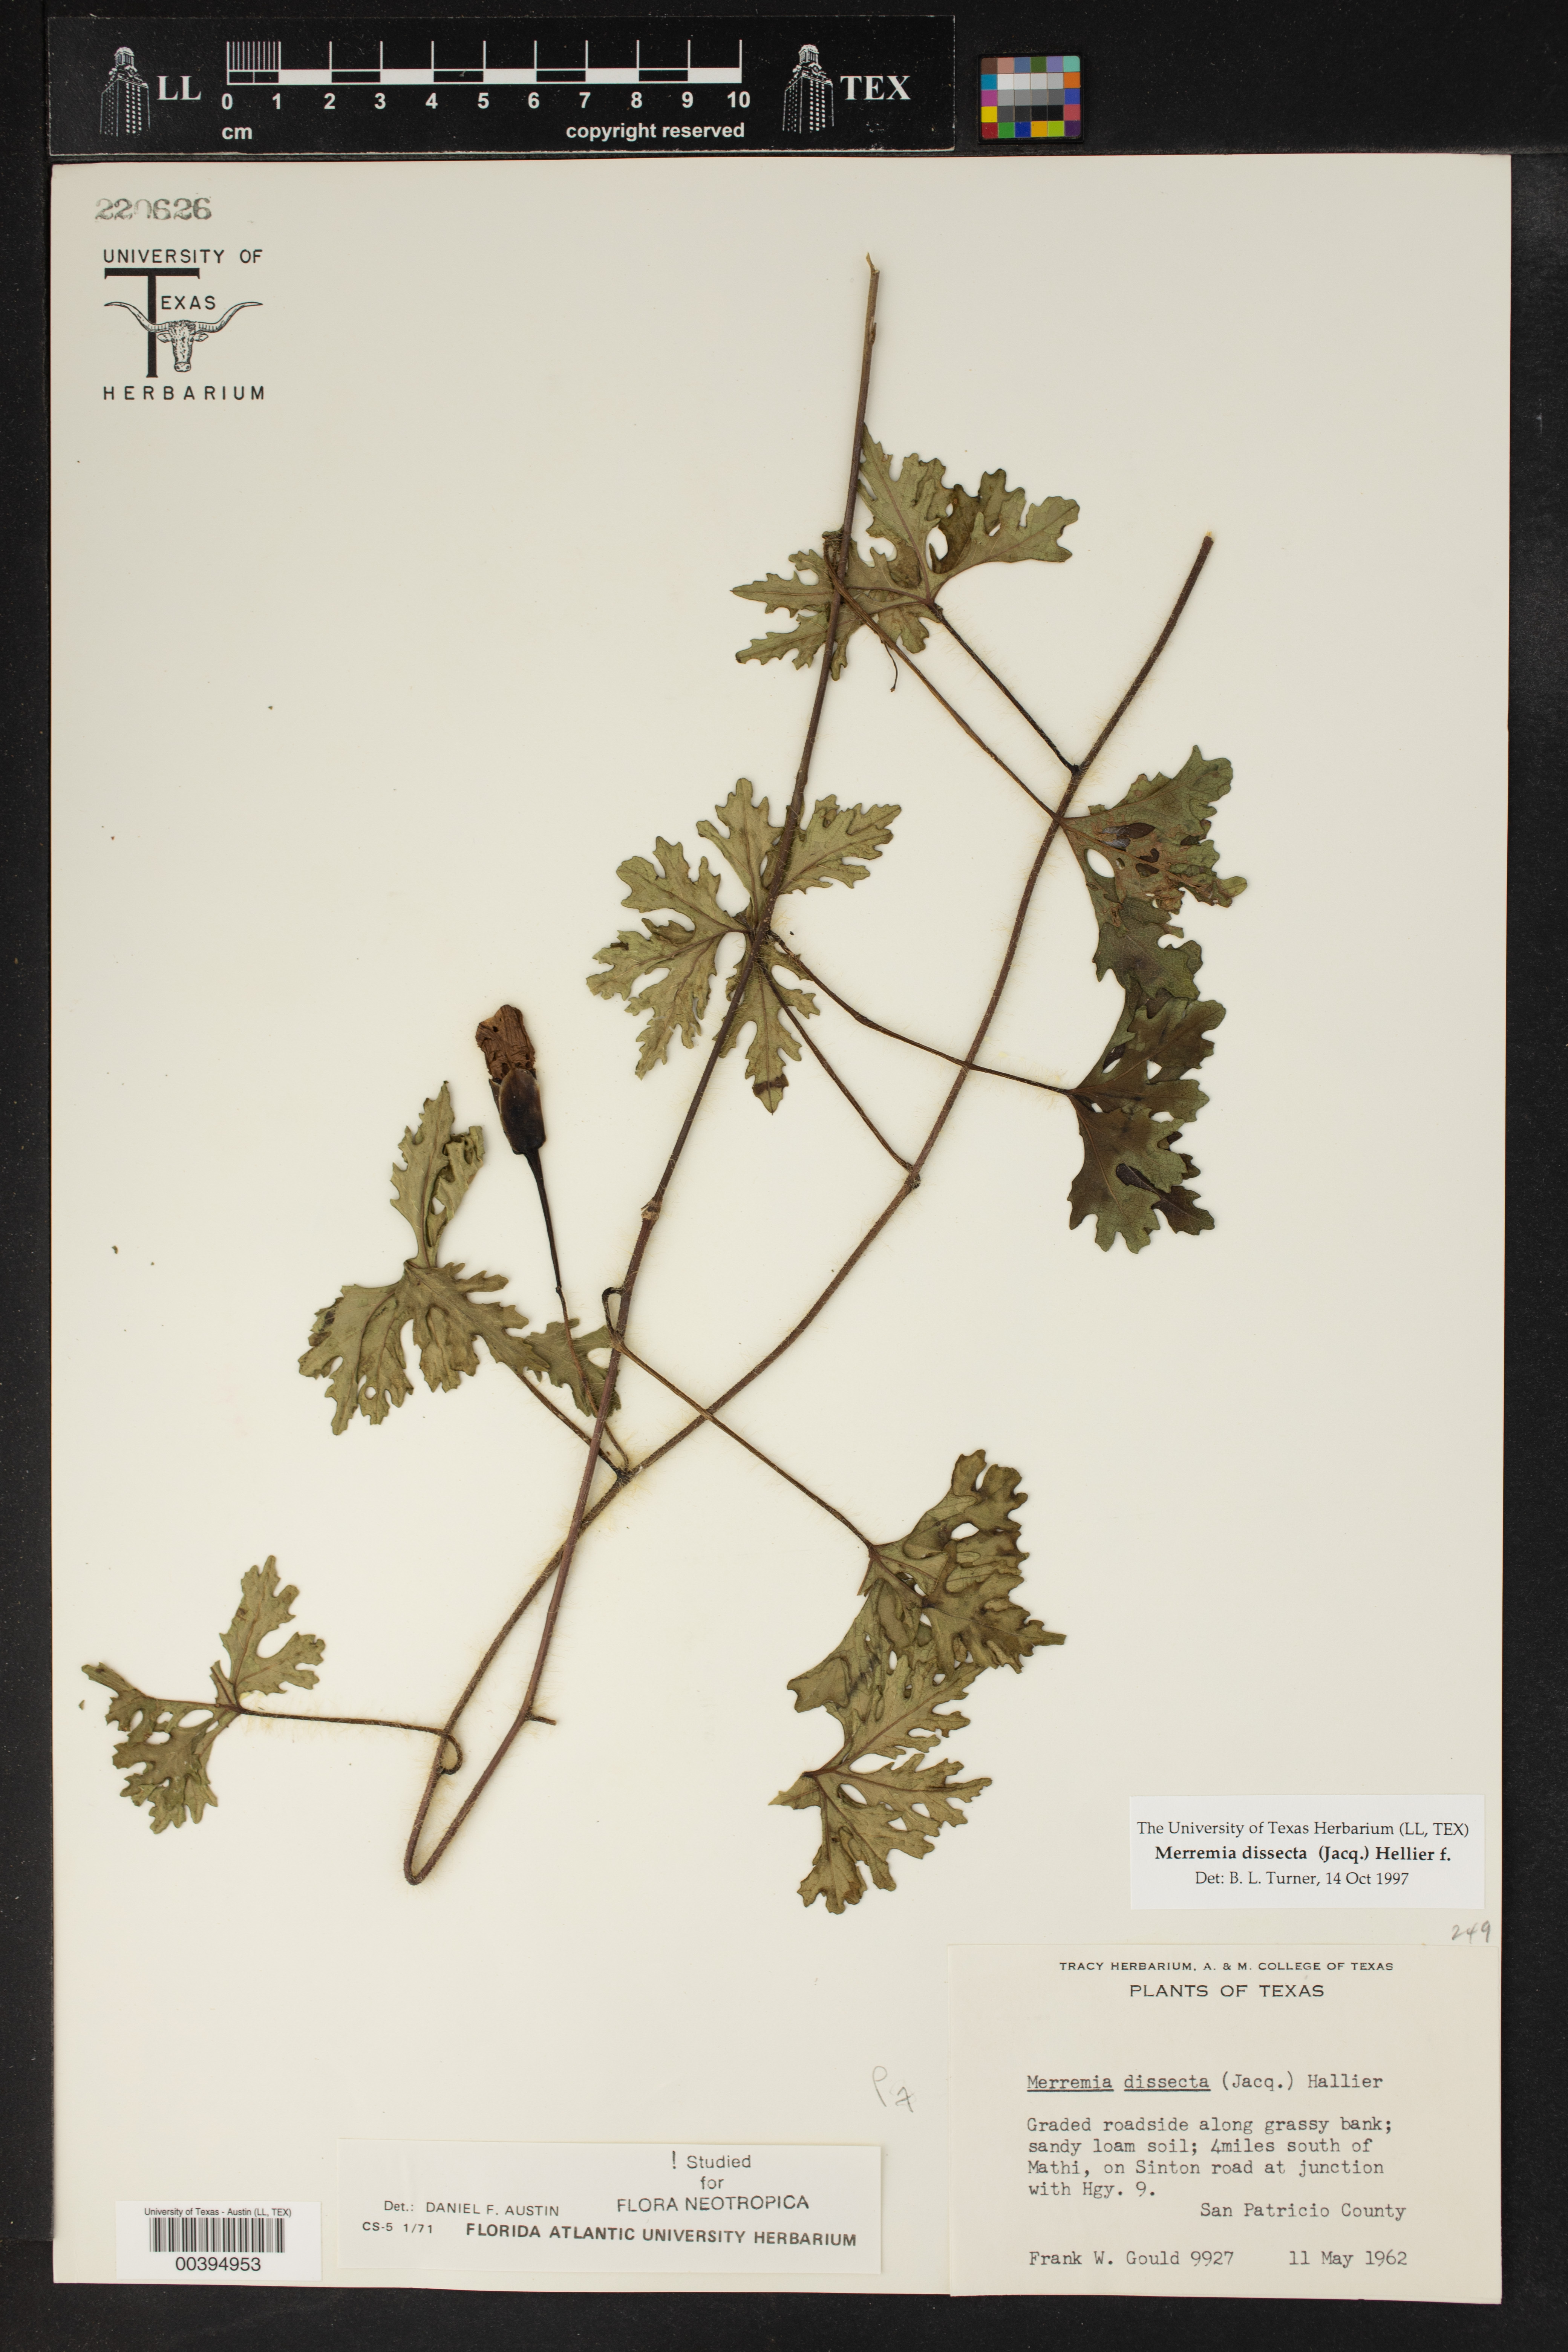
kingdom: Plantae
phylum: Tracheophyta
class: Magnoliopsida
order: Solanales
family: Convolvulaceae
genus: Distimake
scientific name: Distimake dissectus
